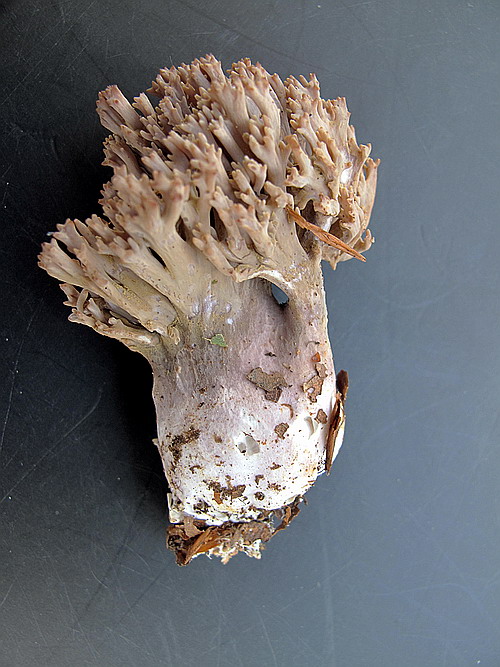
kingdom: Fungi
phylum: Basidiomycota
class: Agaricomycetes
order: Gomphales
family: Gomphaceae
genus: Ramaria
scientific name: Ramaria fumigata
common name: violet koralsvamp
